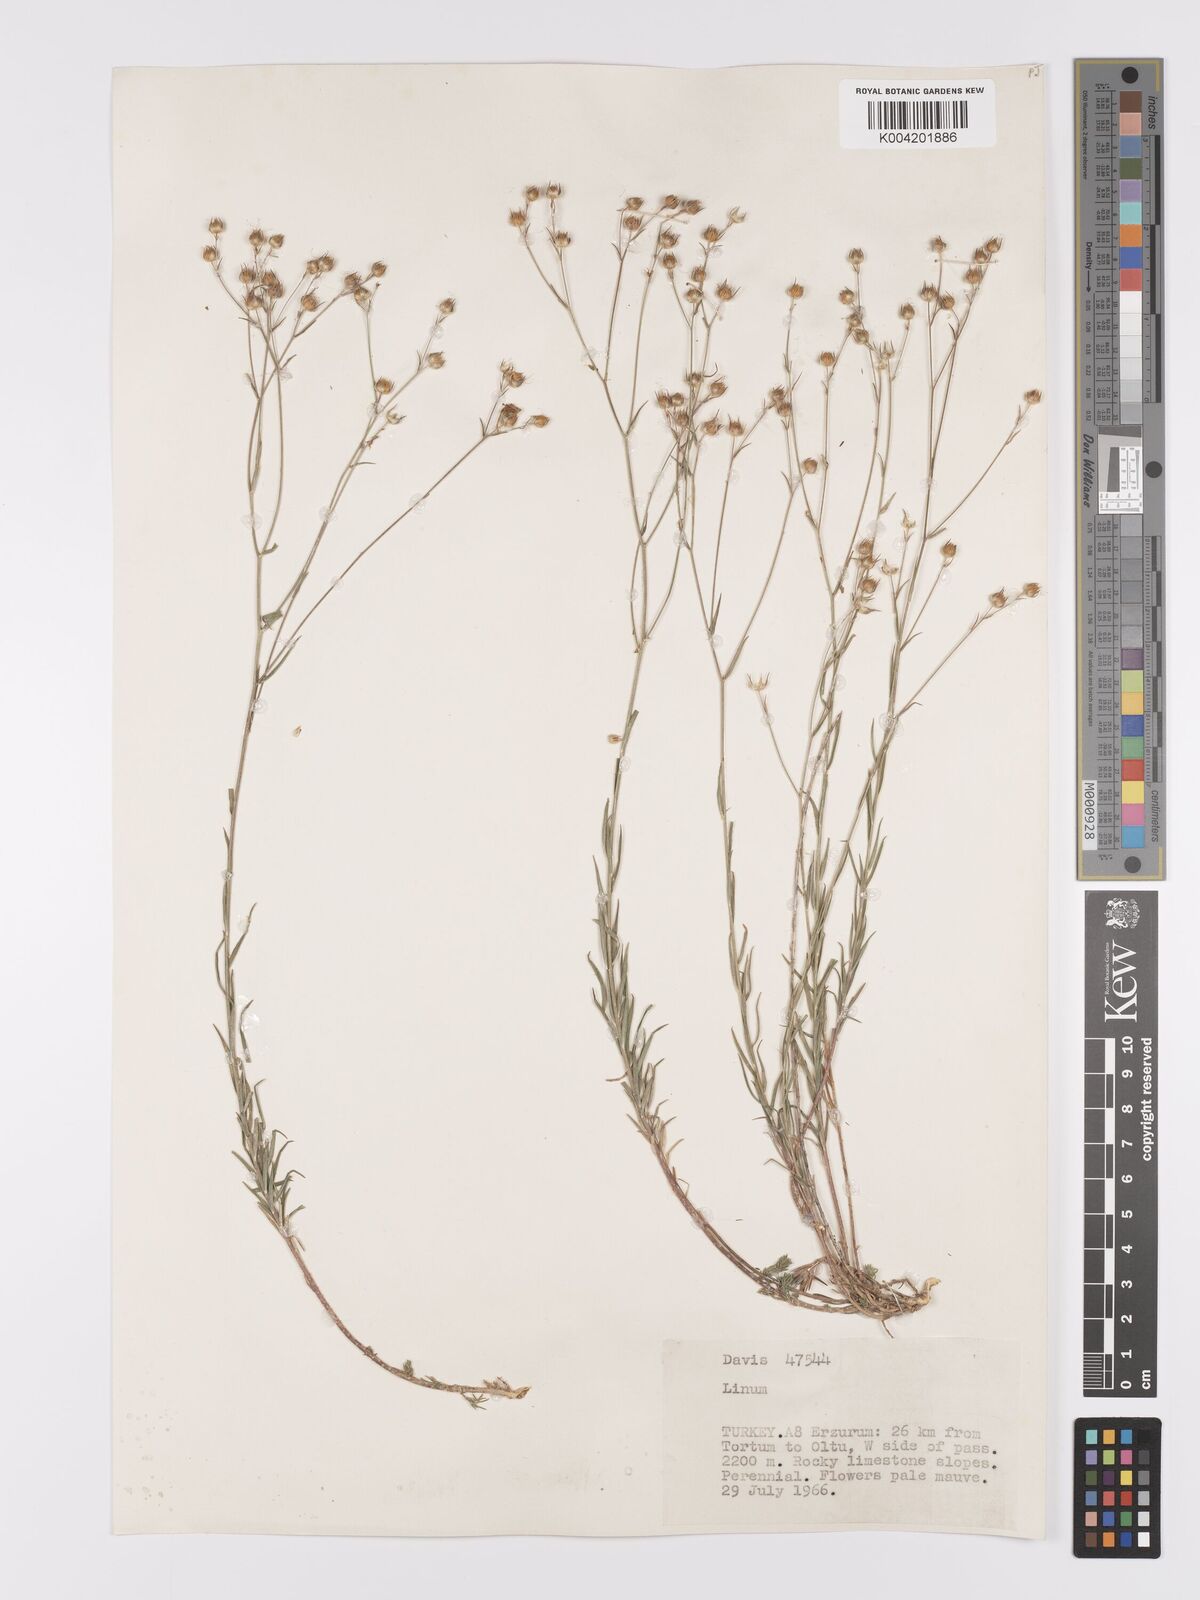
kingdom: Plantae
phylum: Tracheophyta
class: Magnoliopsida
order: Malpighiales
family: Linaceae
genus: Linum
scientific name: Linum
